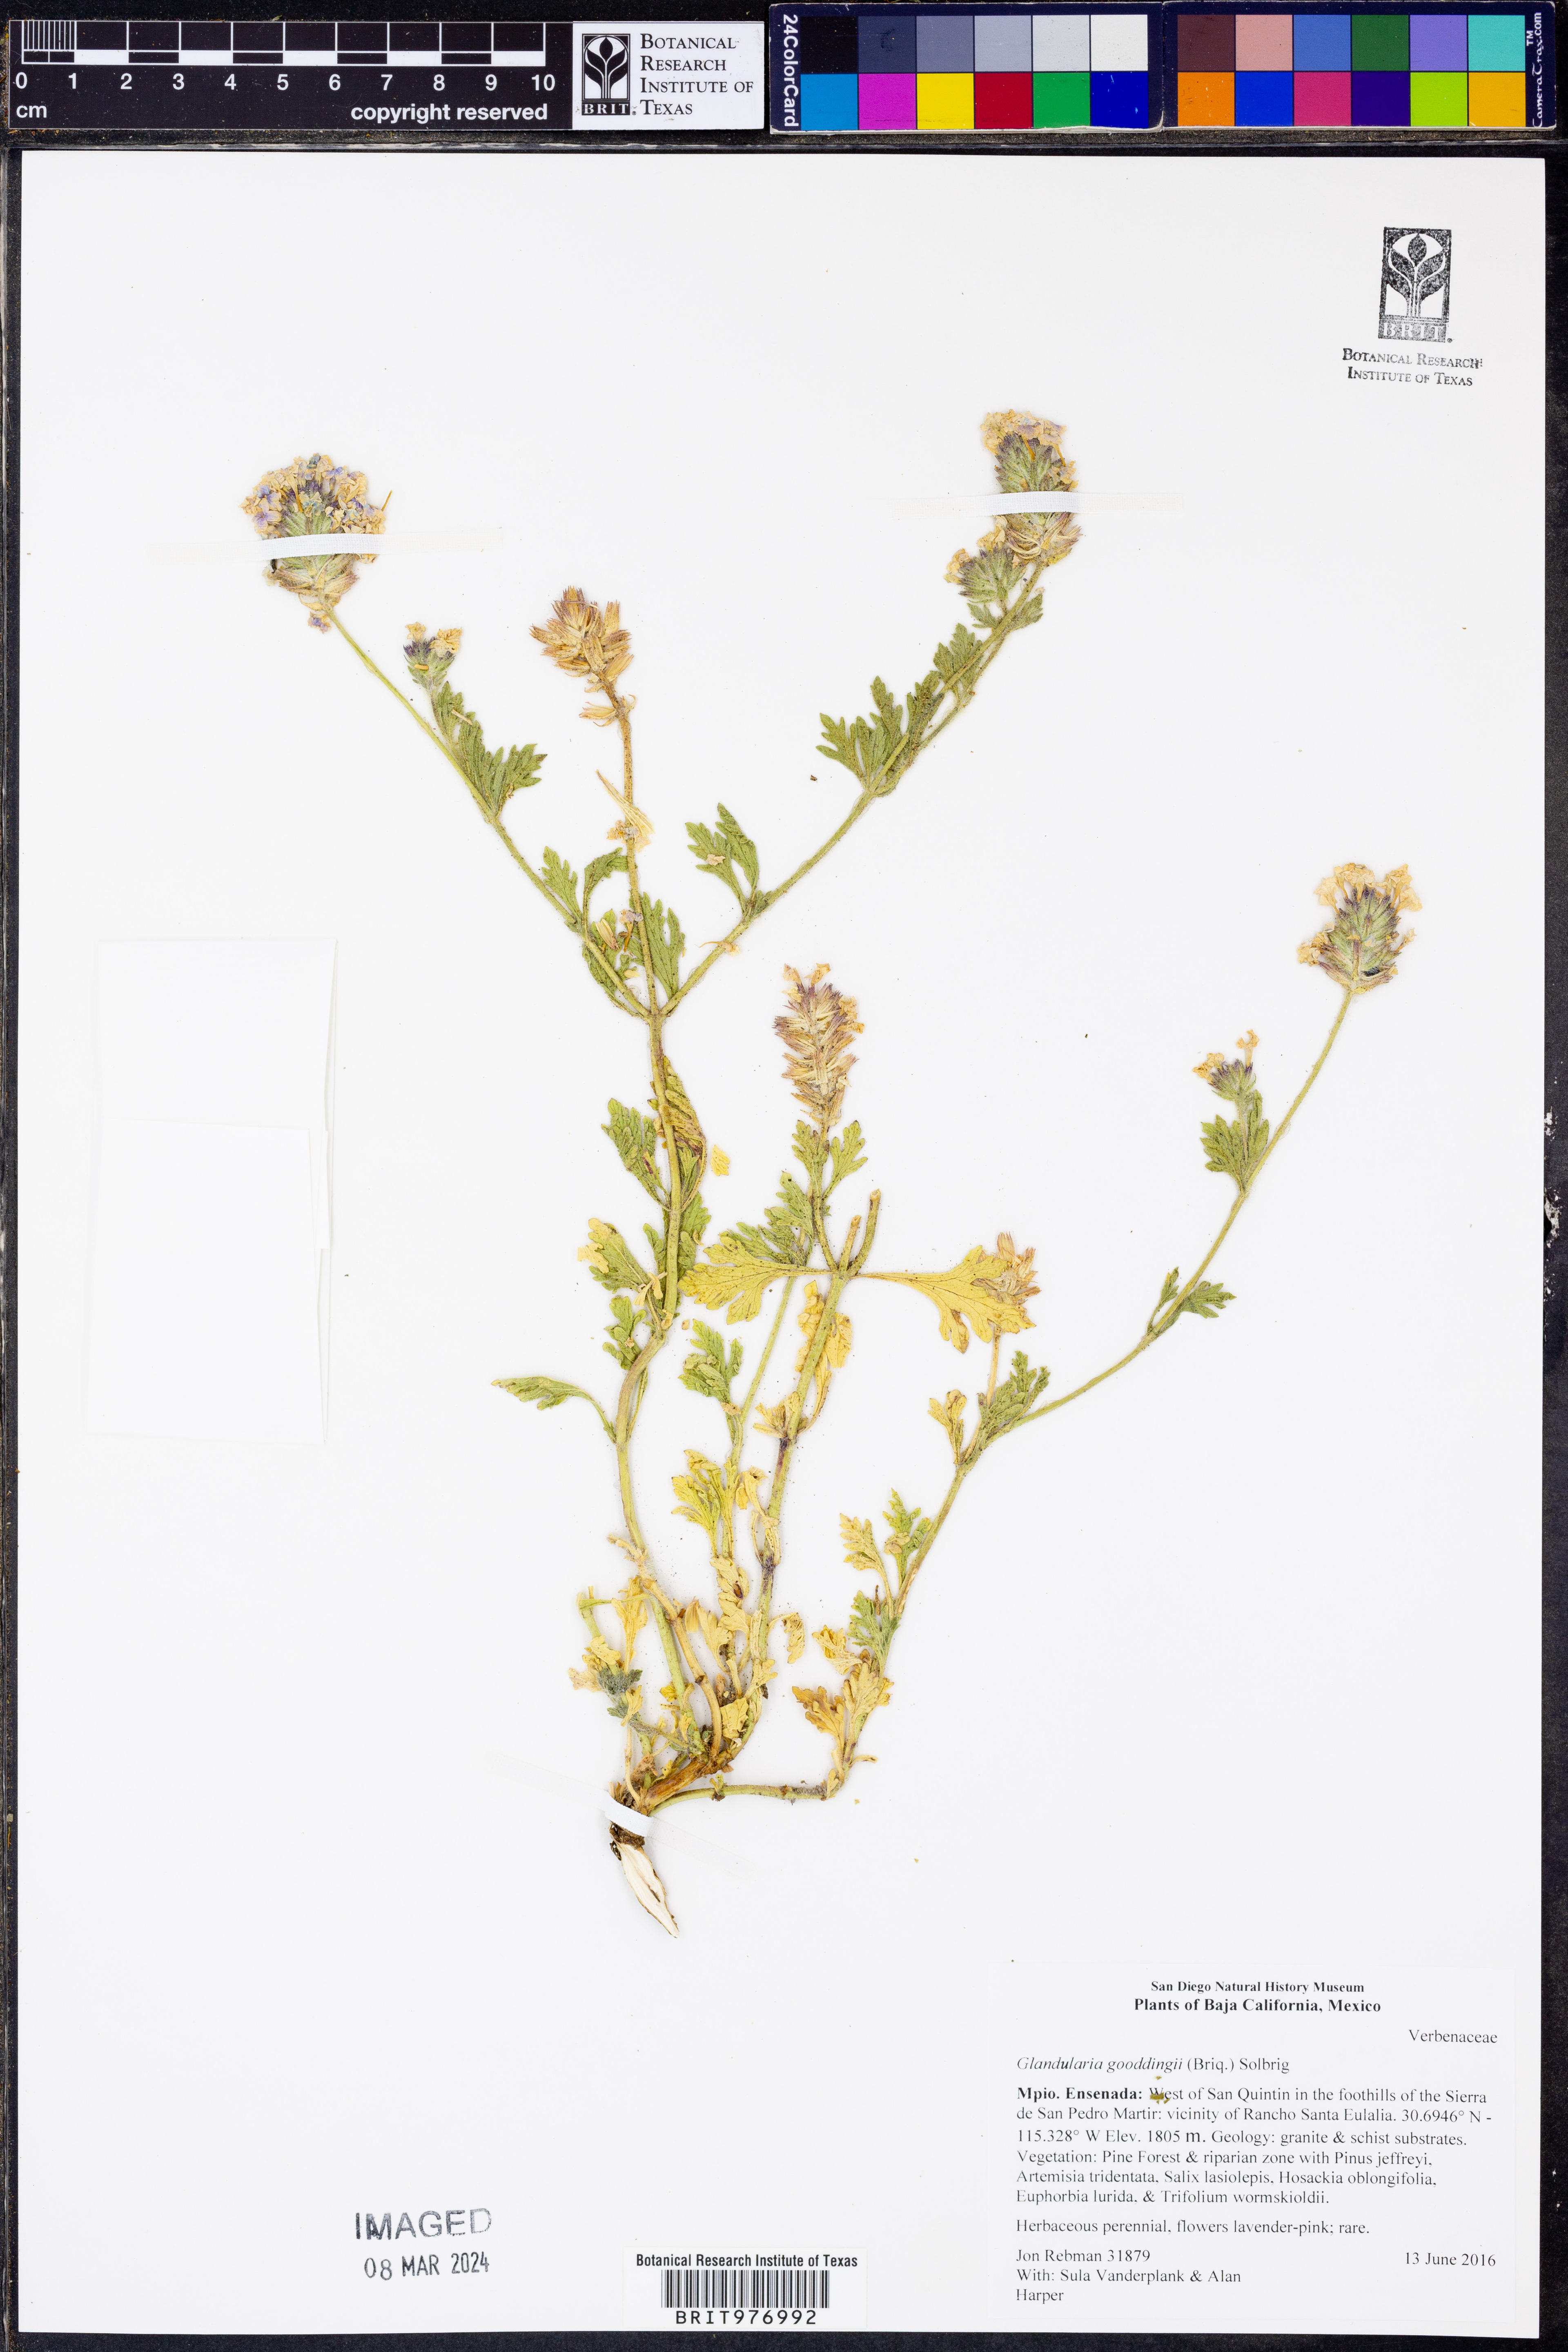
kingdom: Plantae
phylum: Tracheophyta
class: Magnoliopsida
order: Lamiales
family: Verbenaceae
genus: Verbena
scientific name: Verbena gooddingii
